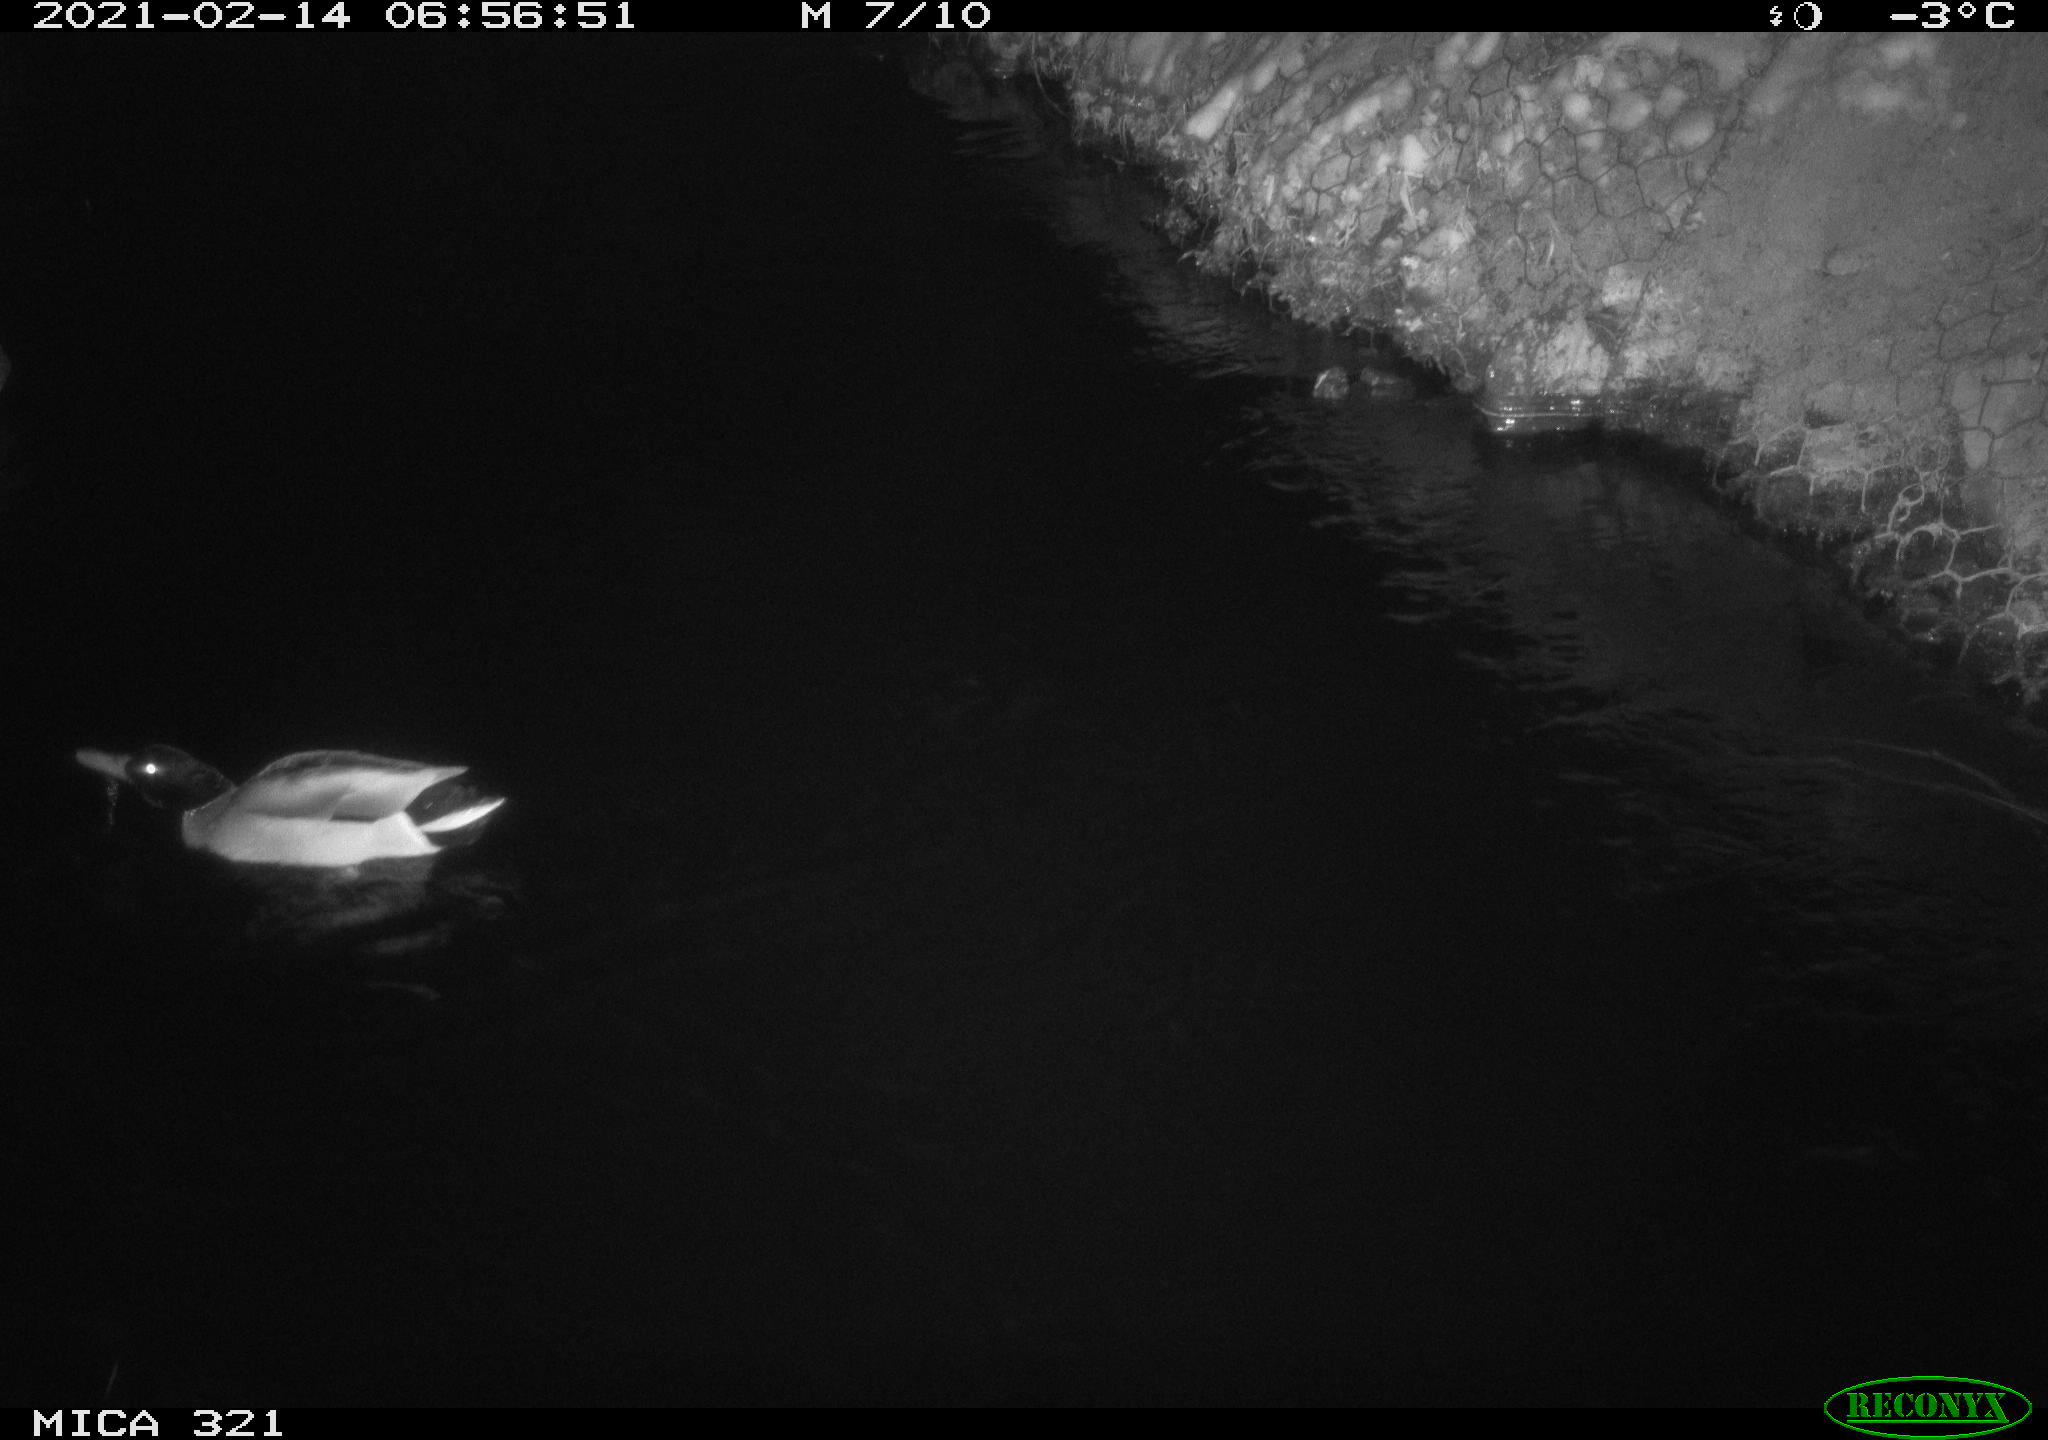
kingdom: Animalia
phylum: Chordata
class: Aves
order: Anseriformes
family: Anatidae
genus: Anas
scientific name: Anas platyrhynchos
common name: Mallard
